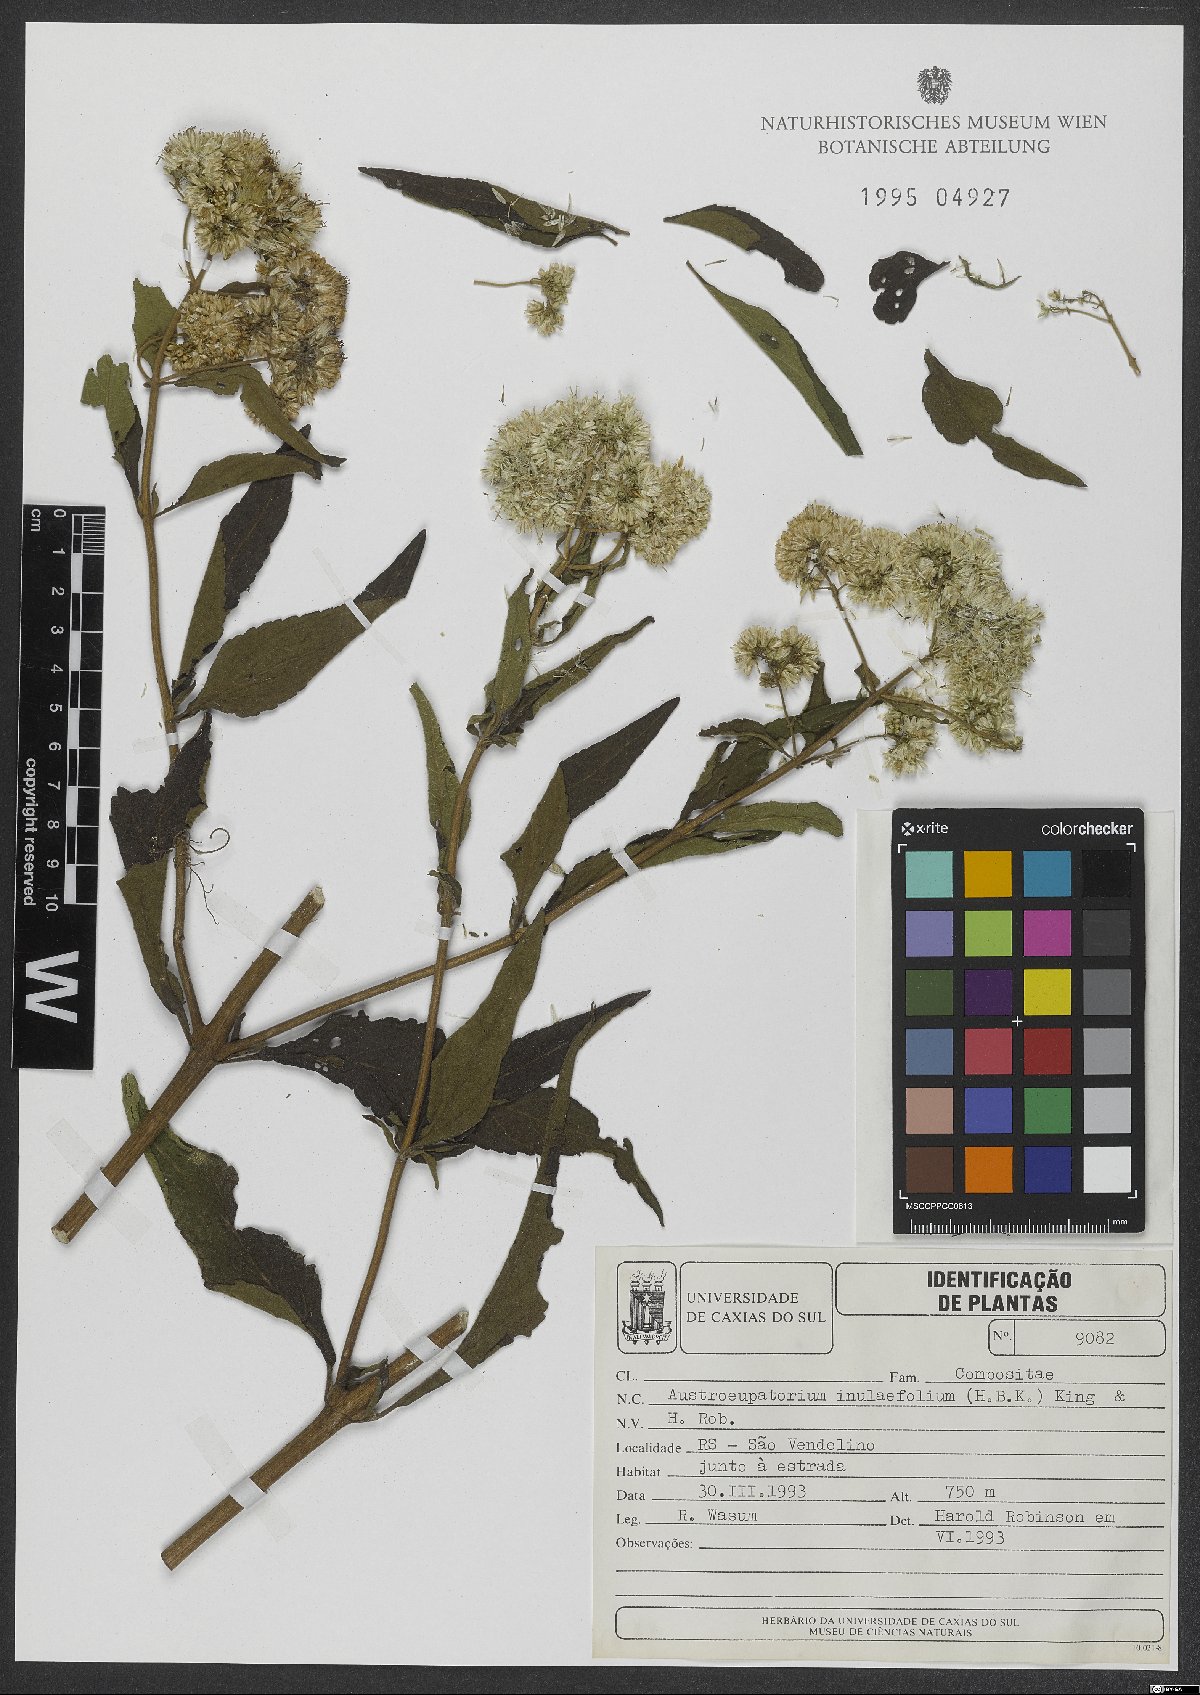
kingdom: Plantae
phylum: Tracheophyta
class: Magnoliopsida
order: Asterales
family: Asteraceae
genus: Austroeupatorium
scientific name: Austroeupatorium inulifolium
